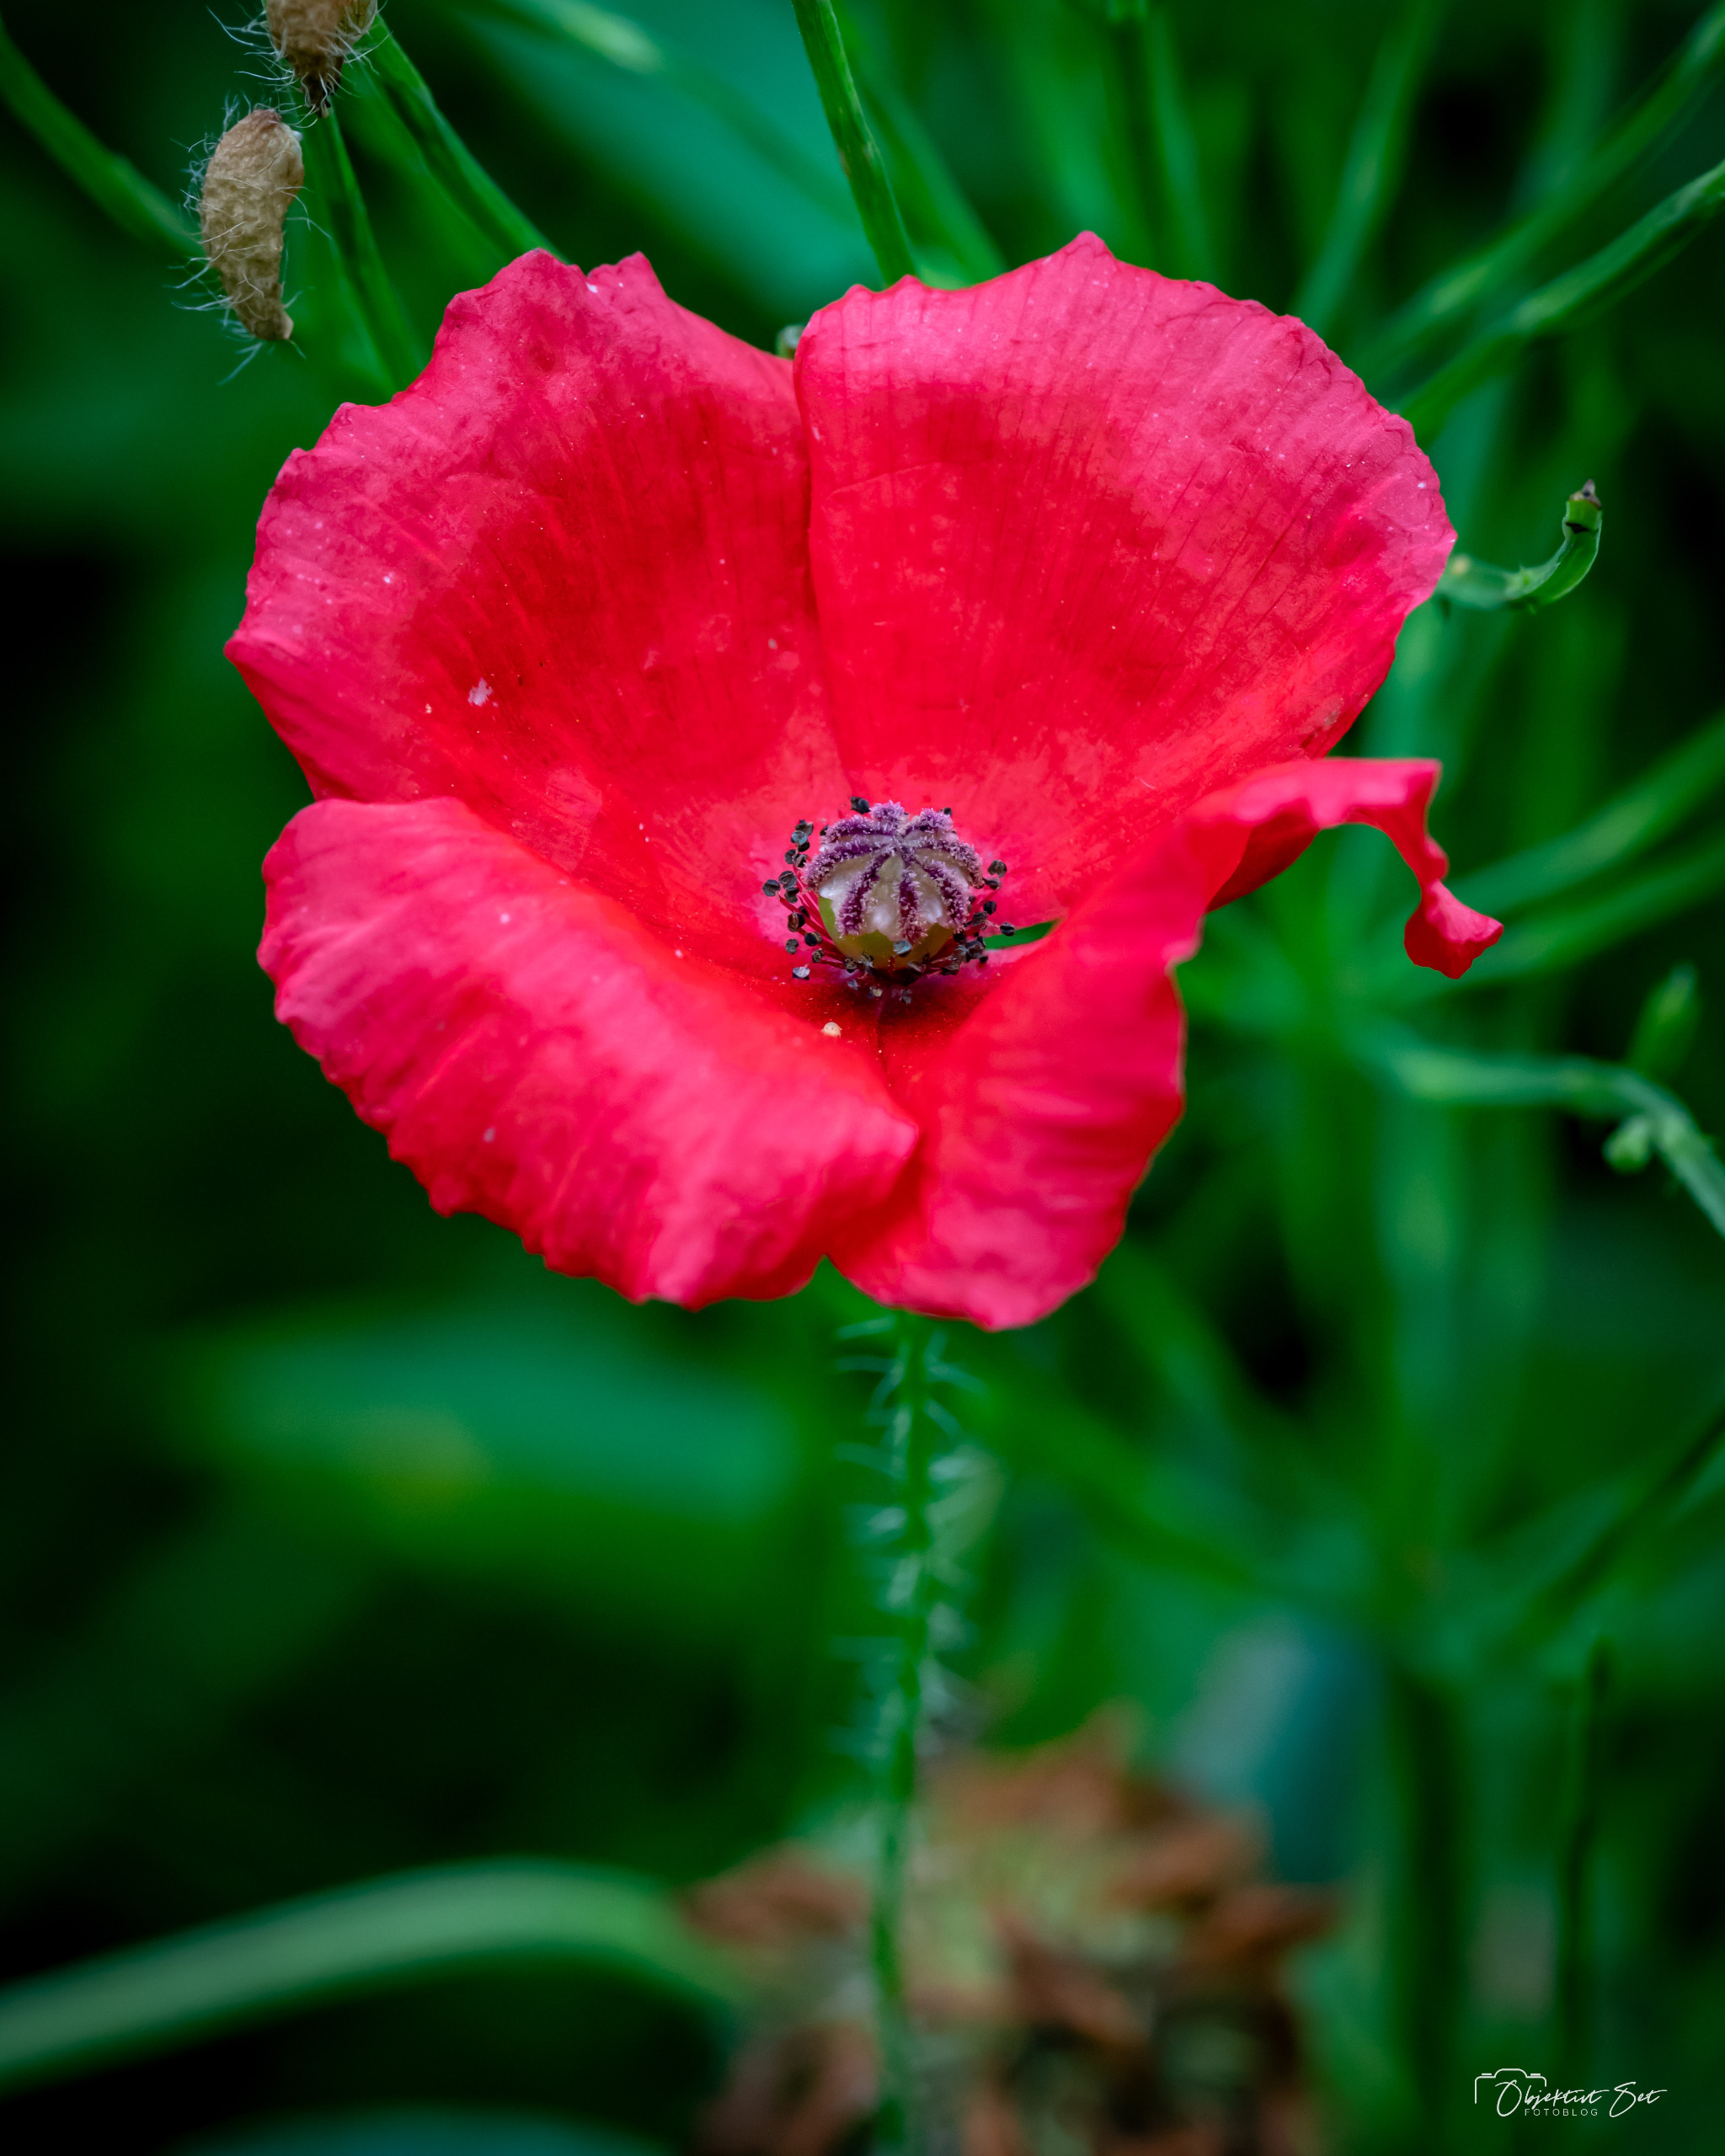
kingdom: Plantae
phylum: Tracheophyta
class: Magnoliopsida
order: Ranunculales
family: Papaveraceae
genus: Papaver
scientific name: Papaver rhoeas
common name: Korn-valmue
